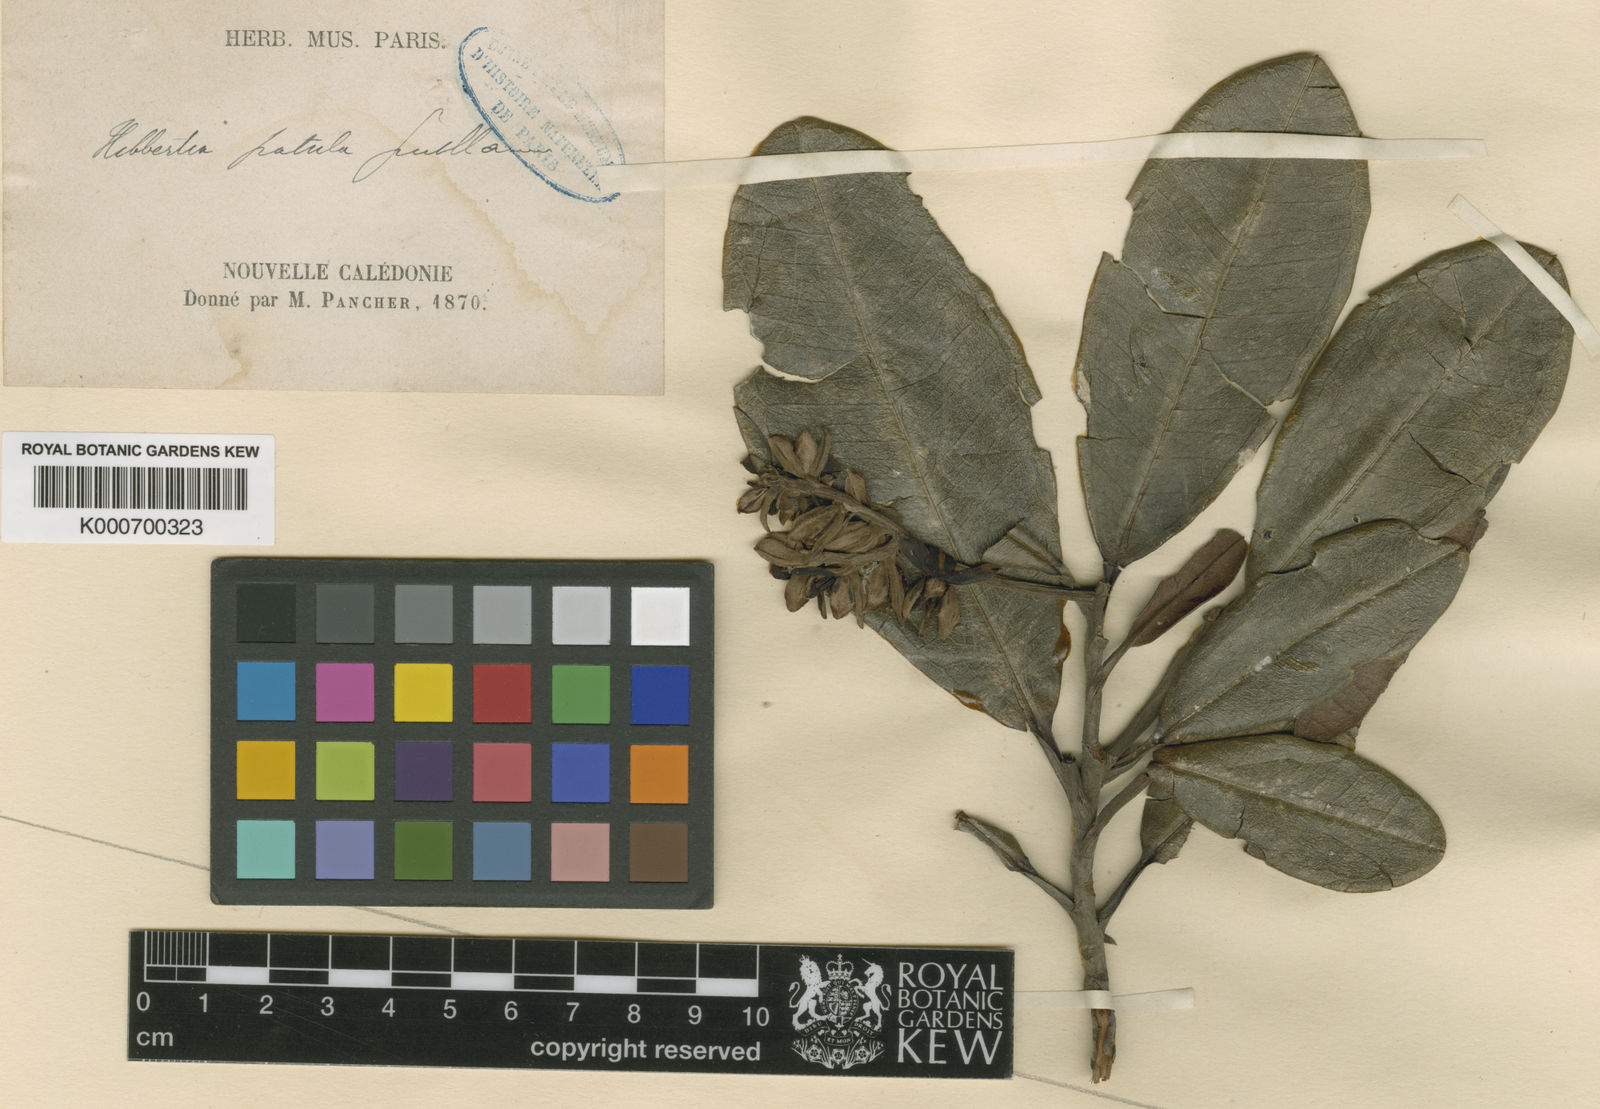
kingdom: Plantae
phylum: Tracheophyta
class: Magnoliopsida
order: Dilleniales
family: Dilleniaceae
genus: Hibbertia
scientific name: Hibbertia patula
